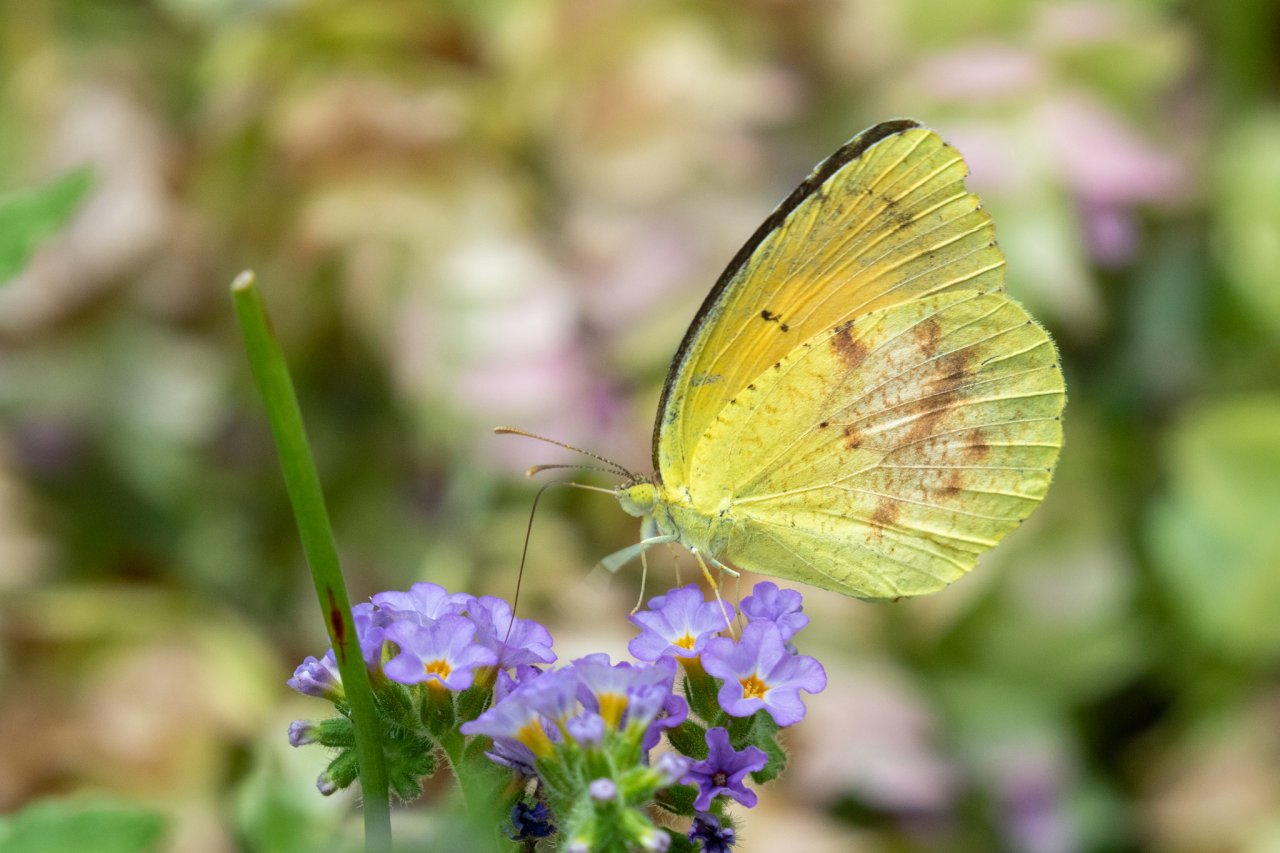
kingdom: Animalia
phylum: Arthropoda
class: Insecta
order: Lepidoptera
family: Pieridae
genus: Abaeis
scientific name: Abaeis nicippe
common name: Sleepy Orange
